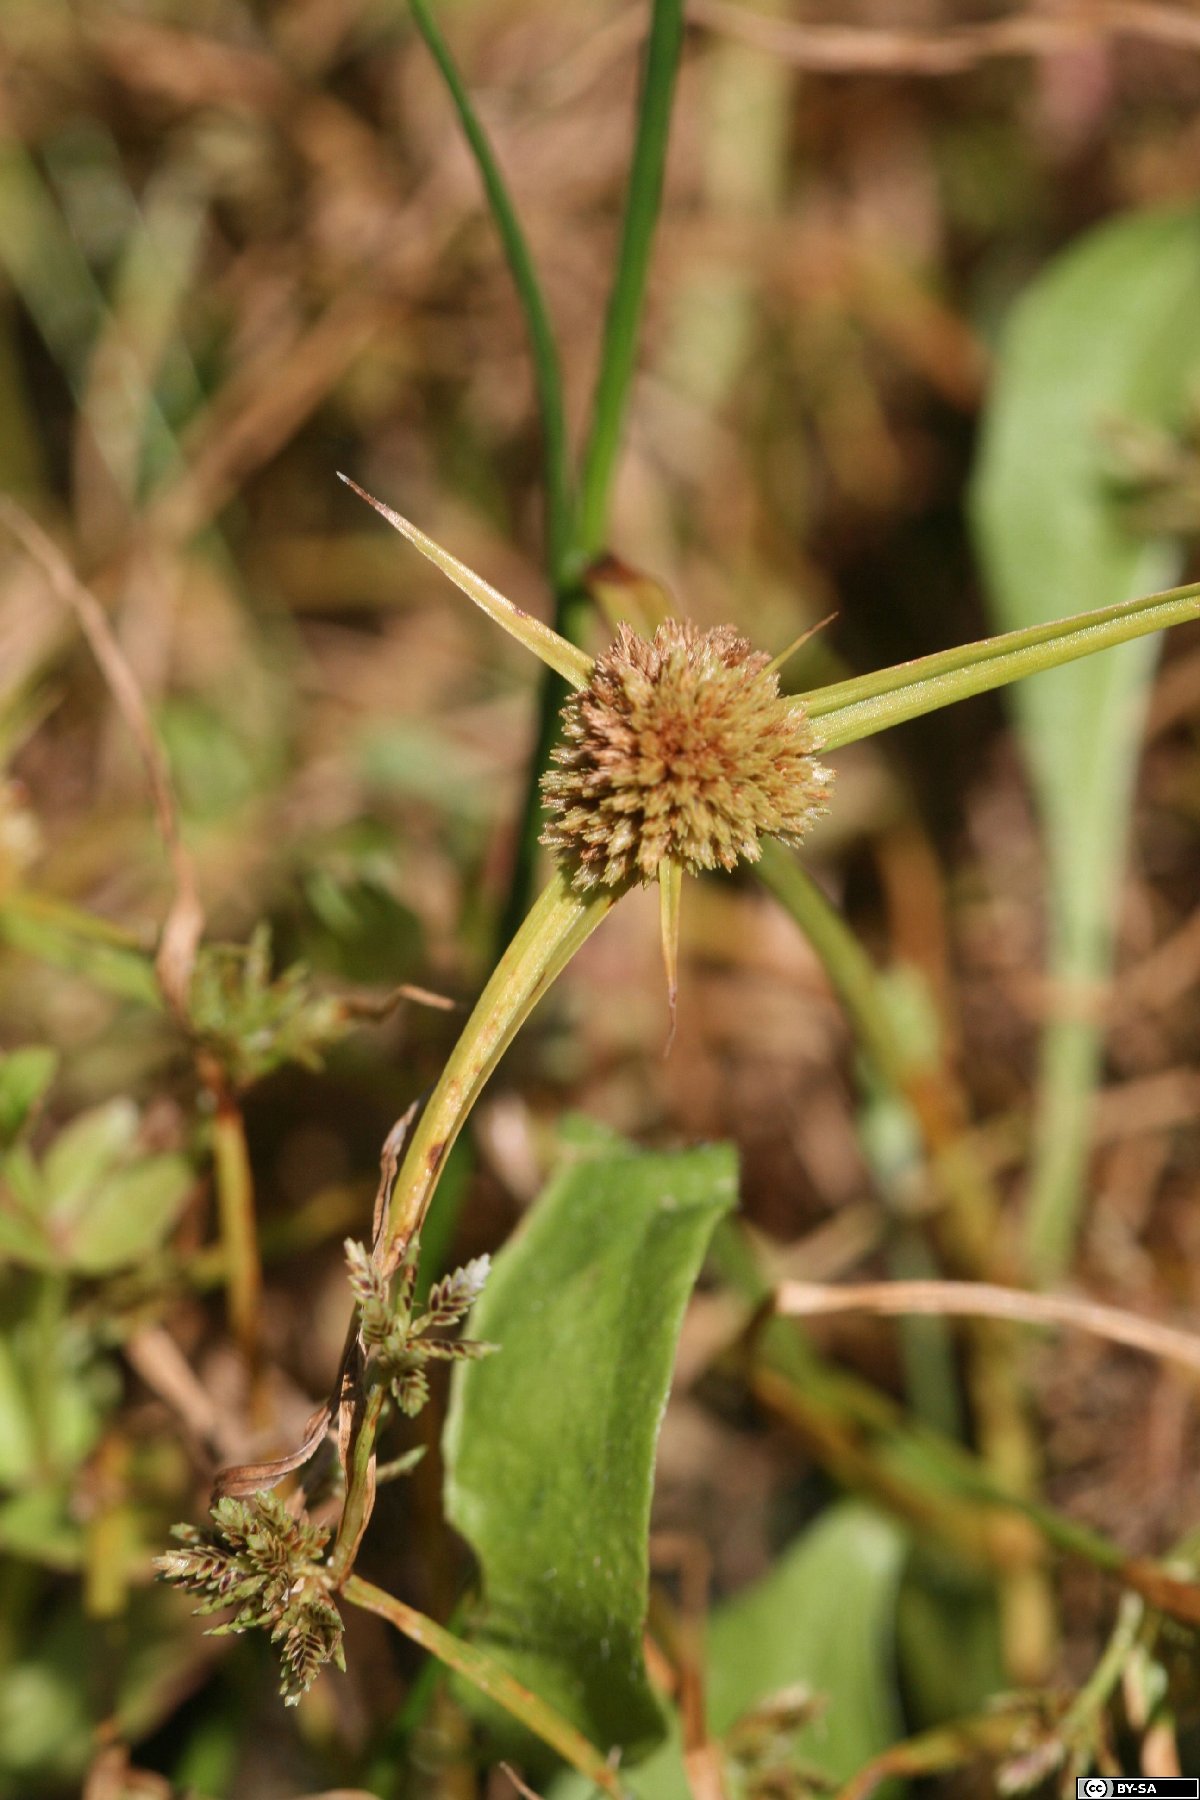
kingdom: Plantae
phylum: Tracheophyta
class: Liliopsida
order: Poales
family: Cyperaceae
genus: Cyperus
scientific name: Cyperus michelianus
